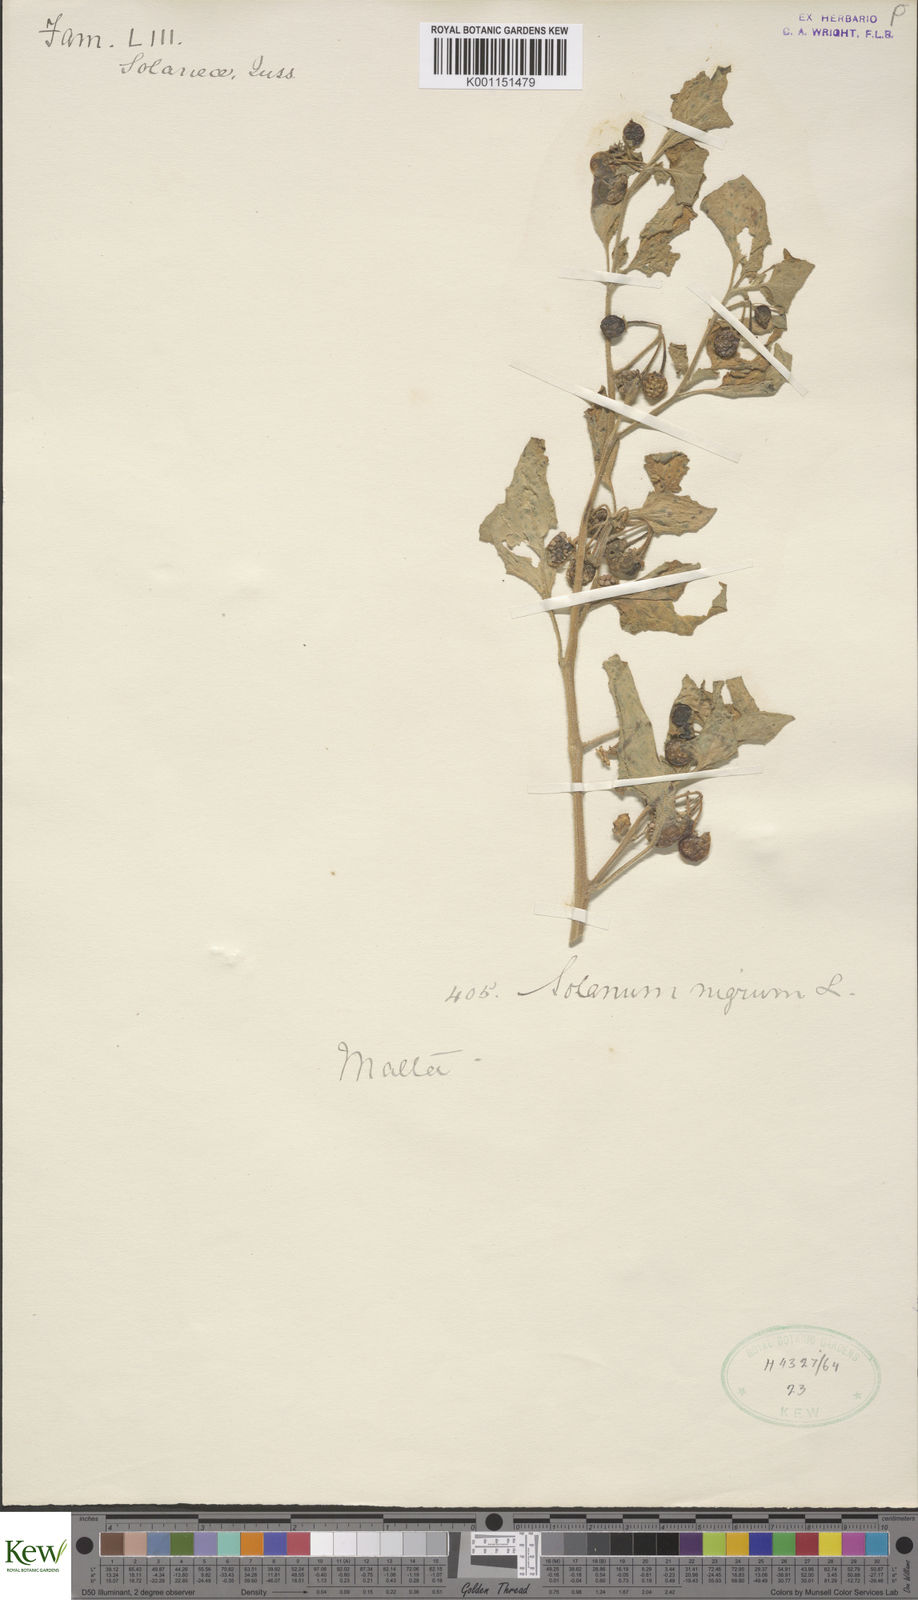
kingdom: Plantae
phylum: Tracheophyta
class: Magnoliopsida
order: Solanales
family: Solanaceae
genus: Solanum
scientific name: Solanum nigrum
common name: Black nightshade
